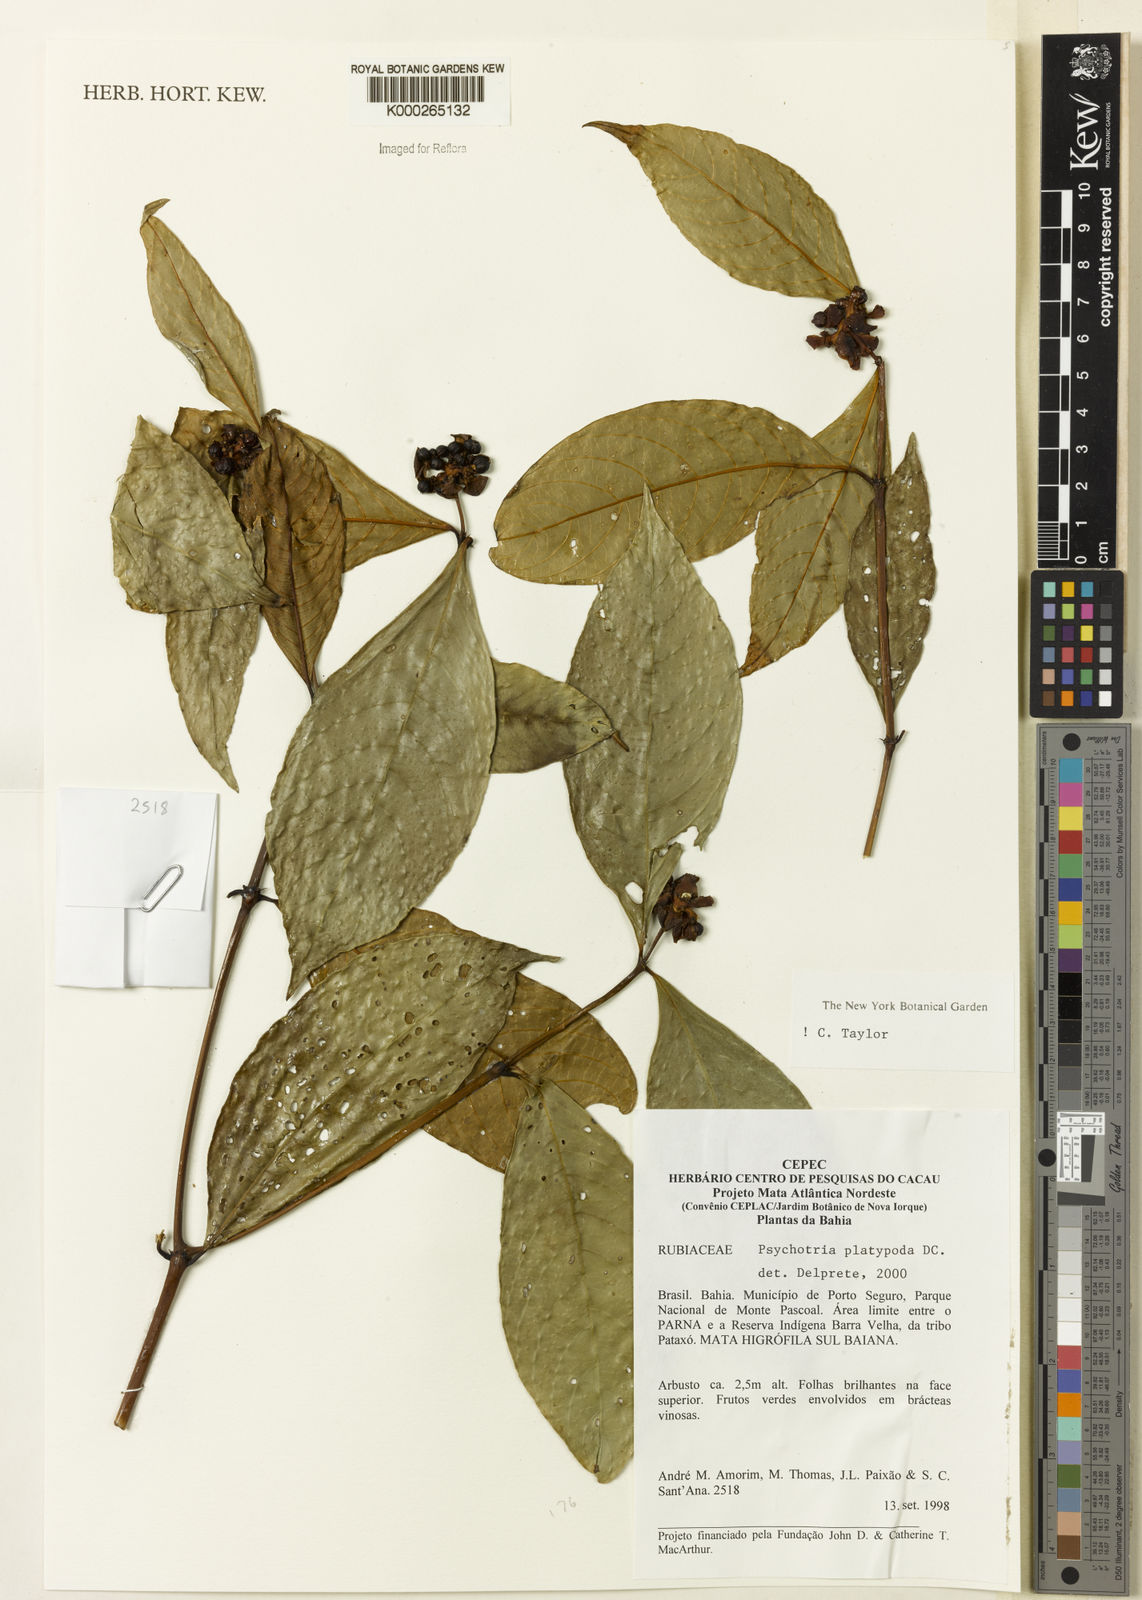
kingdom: Plantae
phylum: Tracheophyta
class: Magnoliopsida
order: Gentianales
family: Rubiaceae
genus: Palicourea
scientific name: Palicourea dichotoma
